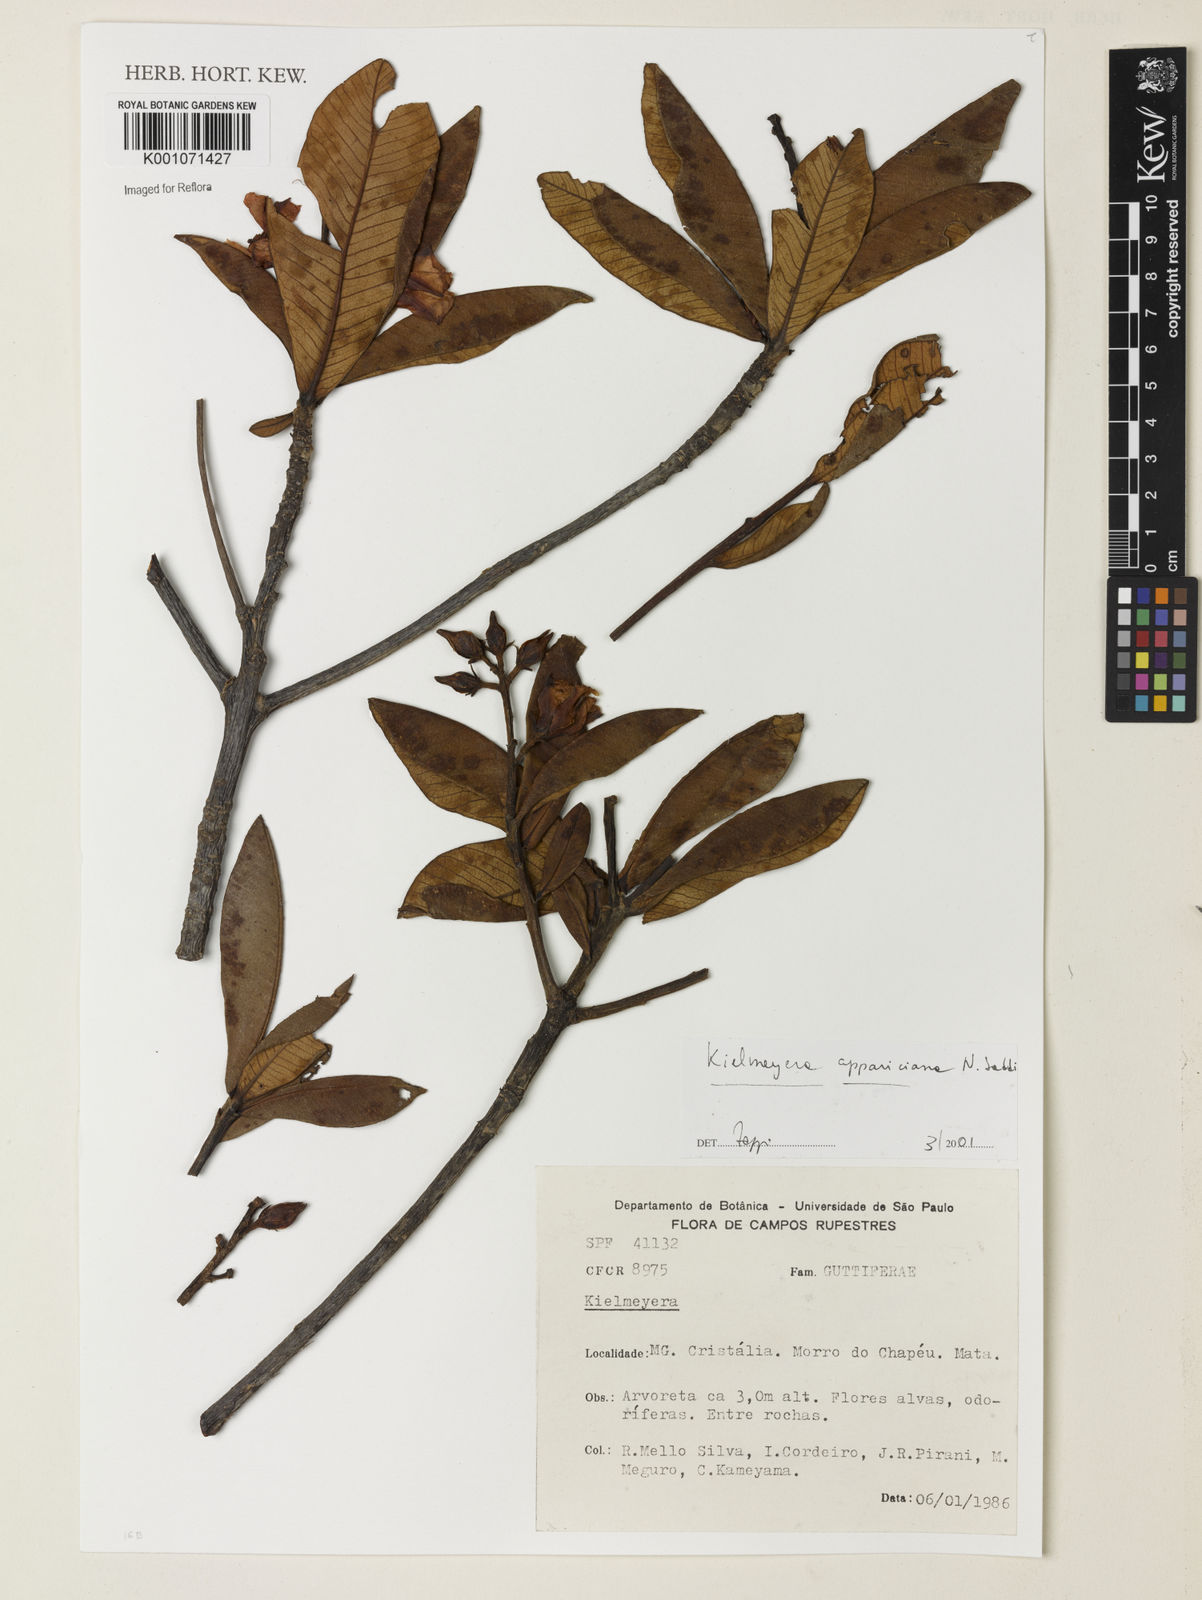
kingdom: Plantae
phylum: Tracheophyta
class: Magnoliopsida
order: Malpighiales
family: Calophyllaceae
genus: Kielmeyera
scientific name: Kielmeyera appariciana
